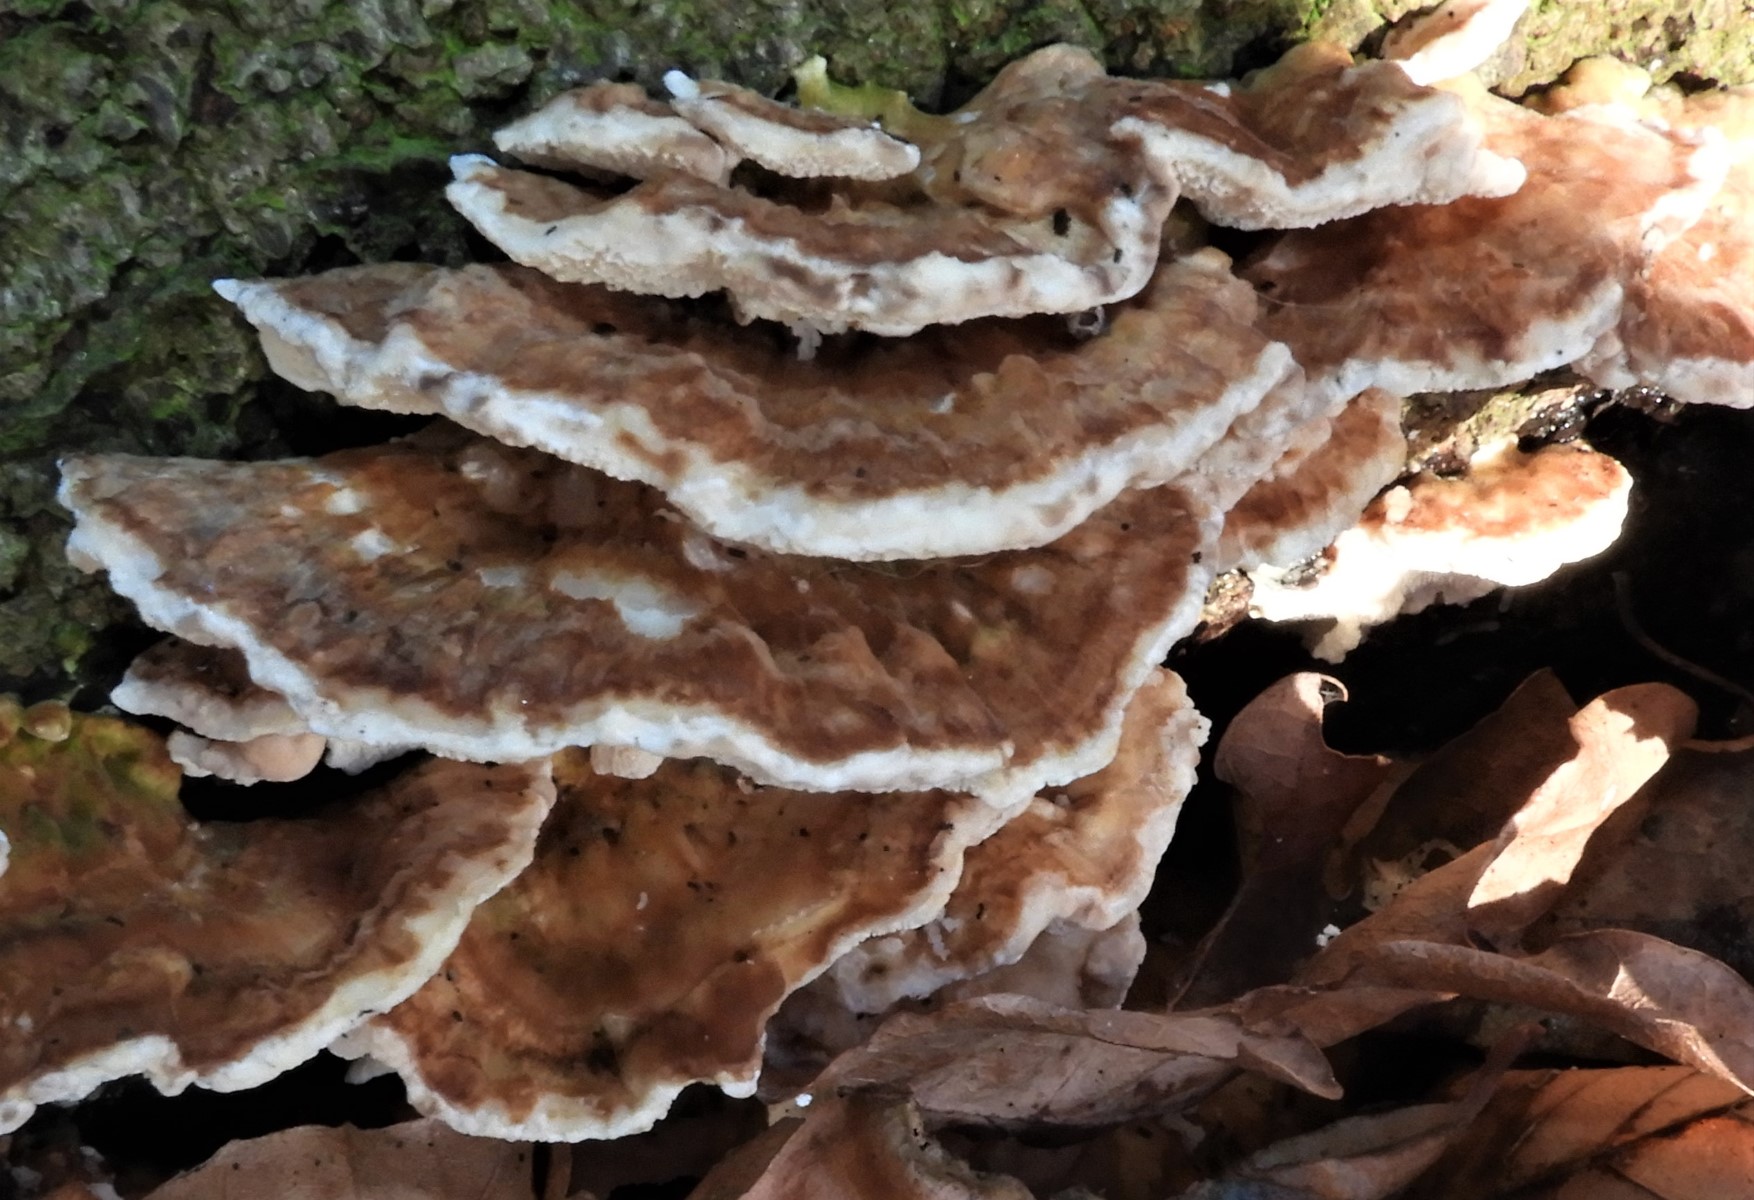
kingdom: Fungi
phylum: Basidiomycota
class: Agaricomycetes
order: Polyporales
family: Phanerochaetaceae
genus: Bjerkandera
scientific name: Bjerkandera fumosa
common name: grågul sodporesvamp
